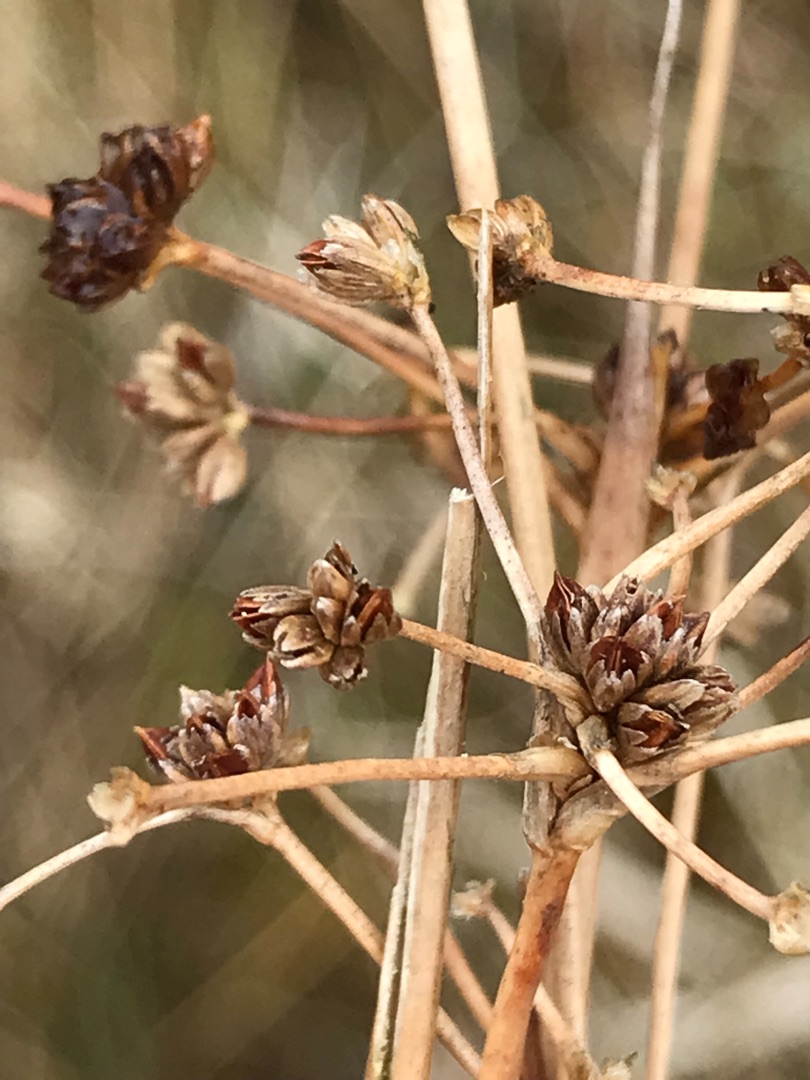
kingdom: Plantae
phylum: Tracheophyta
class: Liliopsida
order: Poales
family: Juncaceae
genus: Juncus
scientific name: Juncus subnodulosus
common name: Butblomstret siv
